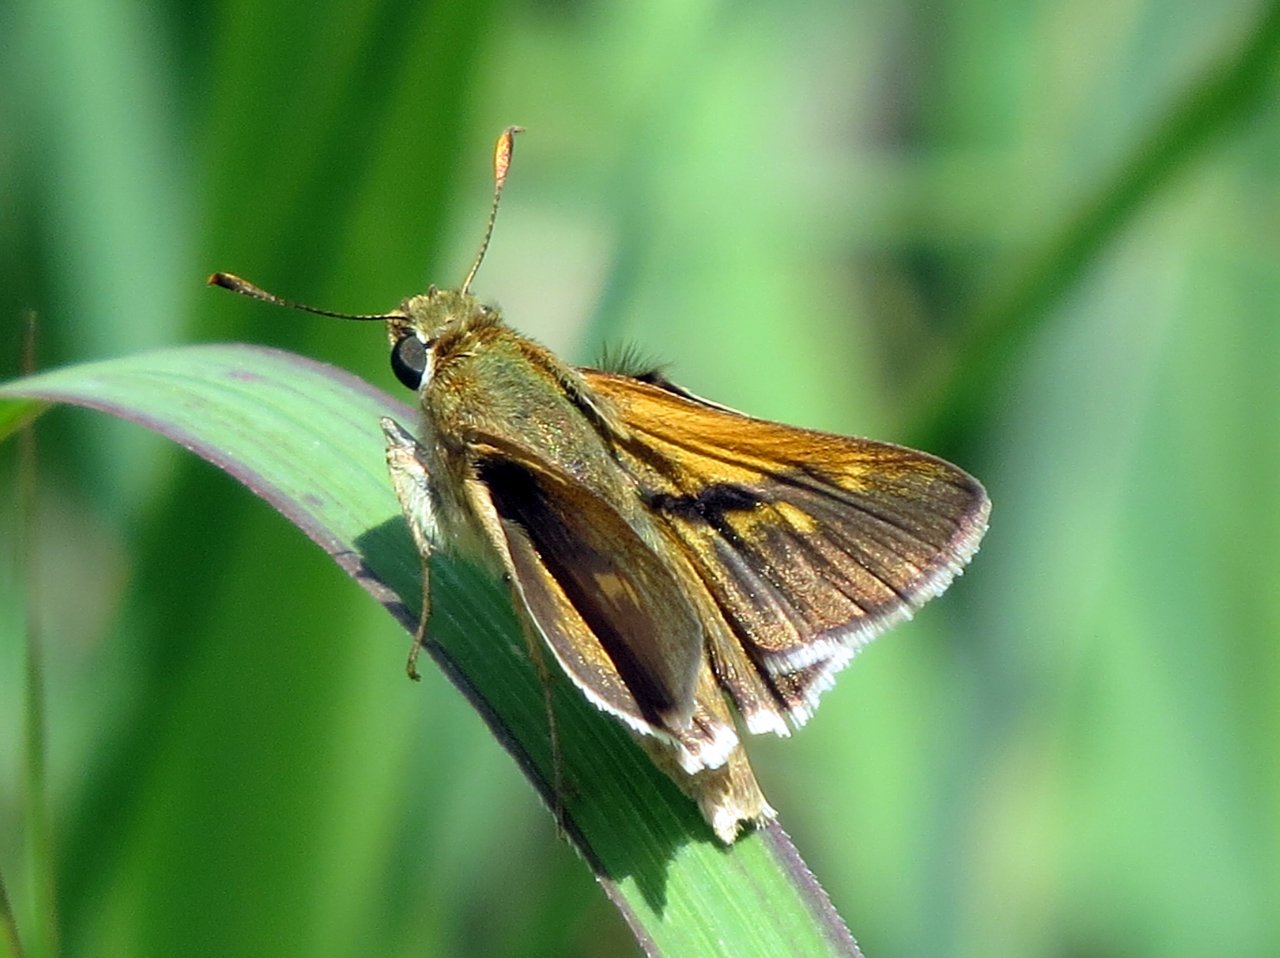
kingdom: Animalia
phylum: Arthropoda
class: Insecta
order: Lepidoptera
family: Hesperiidae
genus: Polites
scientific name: Polites
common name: Crossline Skipper
